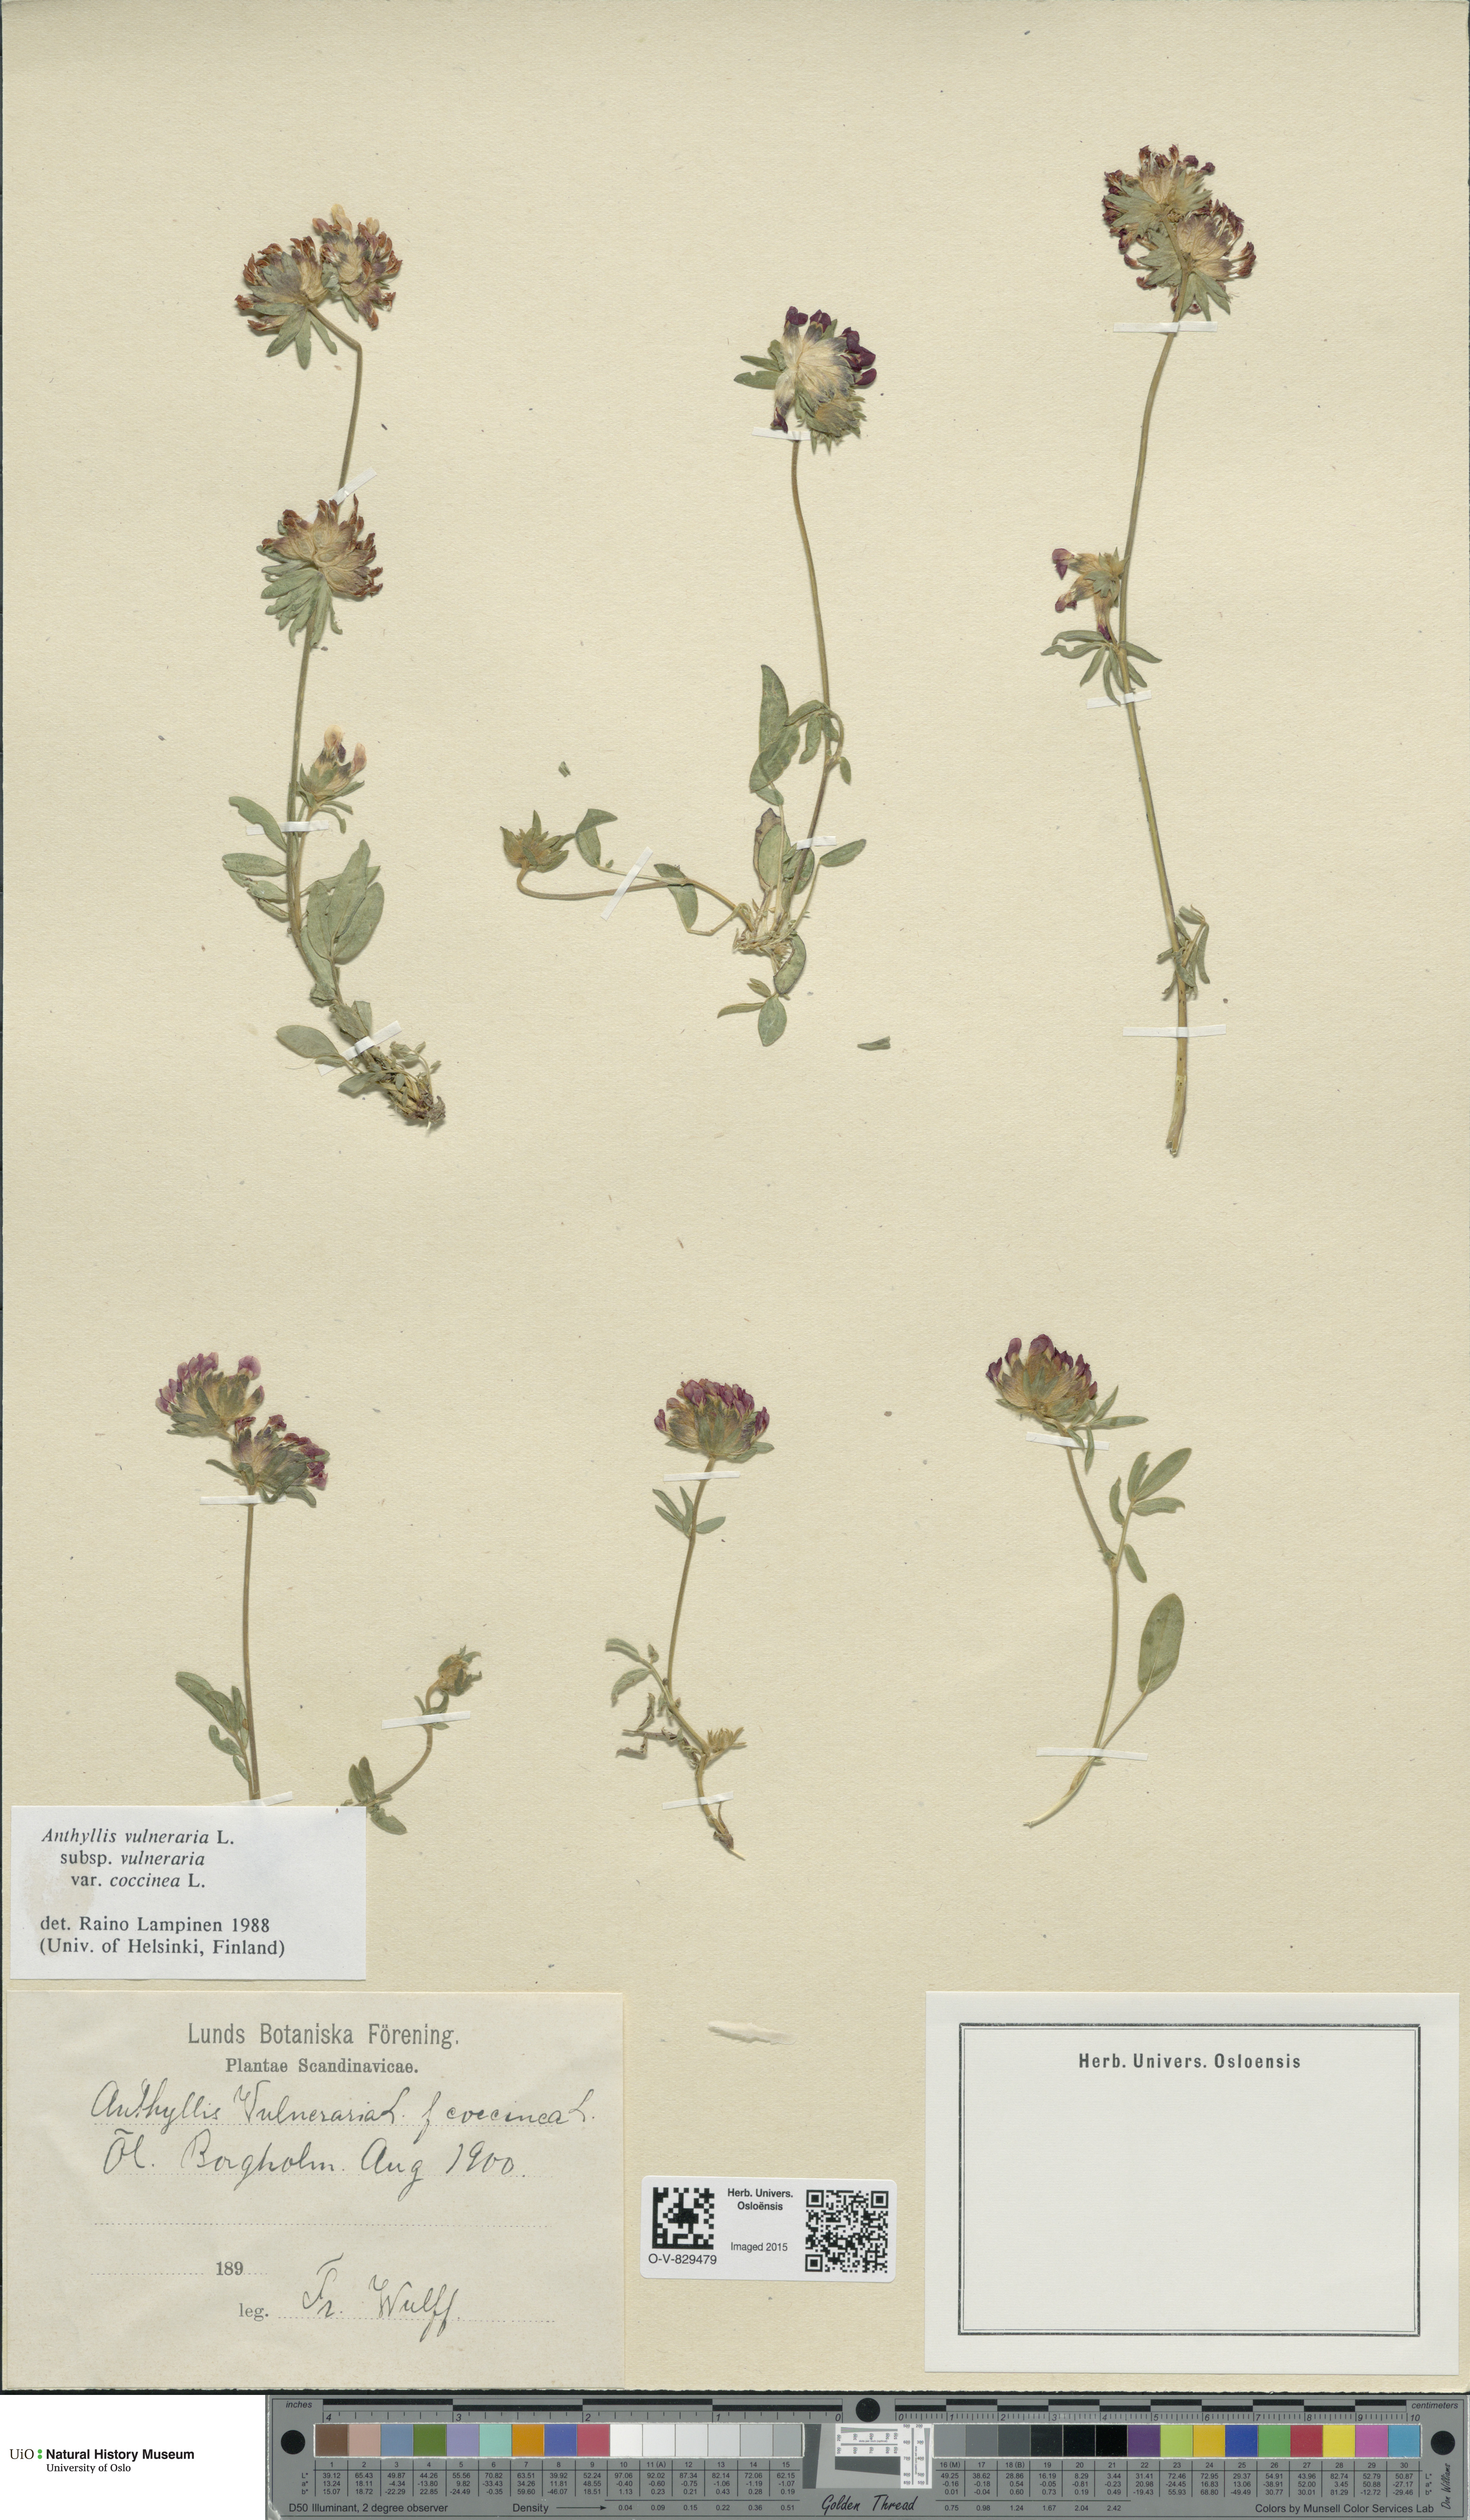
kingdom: Plantae
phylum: Tracheophyta
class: Magnoliopsida
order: Fabales
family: Fabaceae
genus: Anthyllis
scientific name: Anthyllis vulneraria
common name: Kidney vetch
